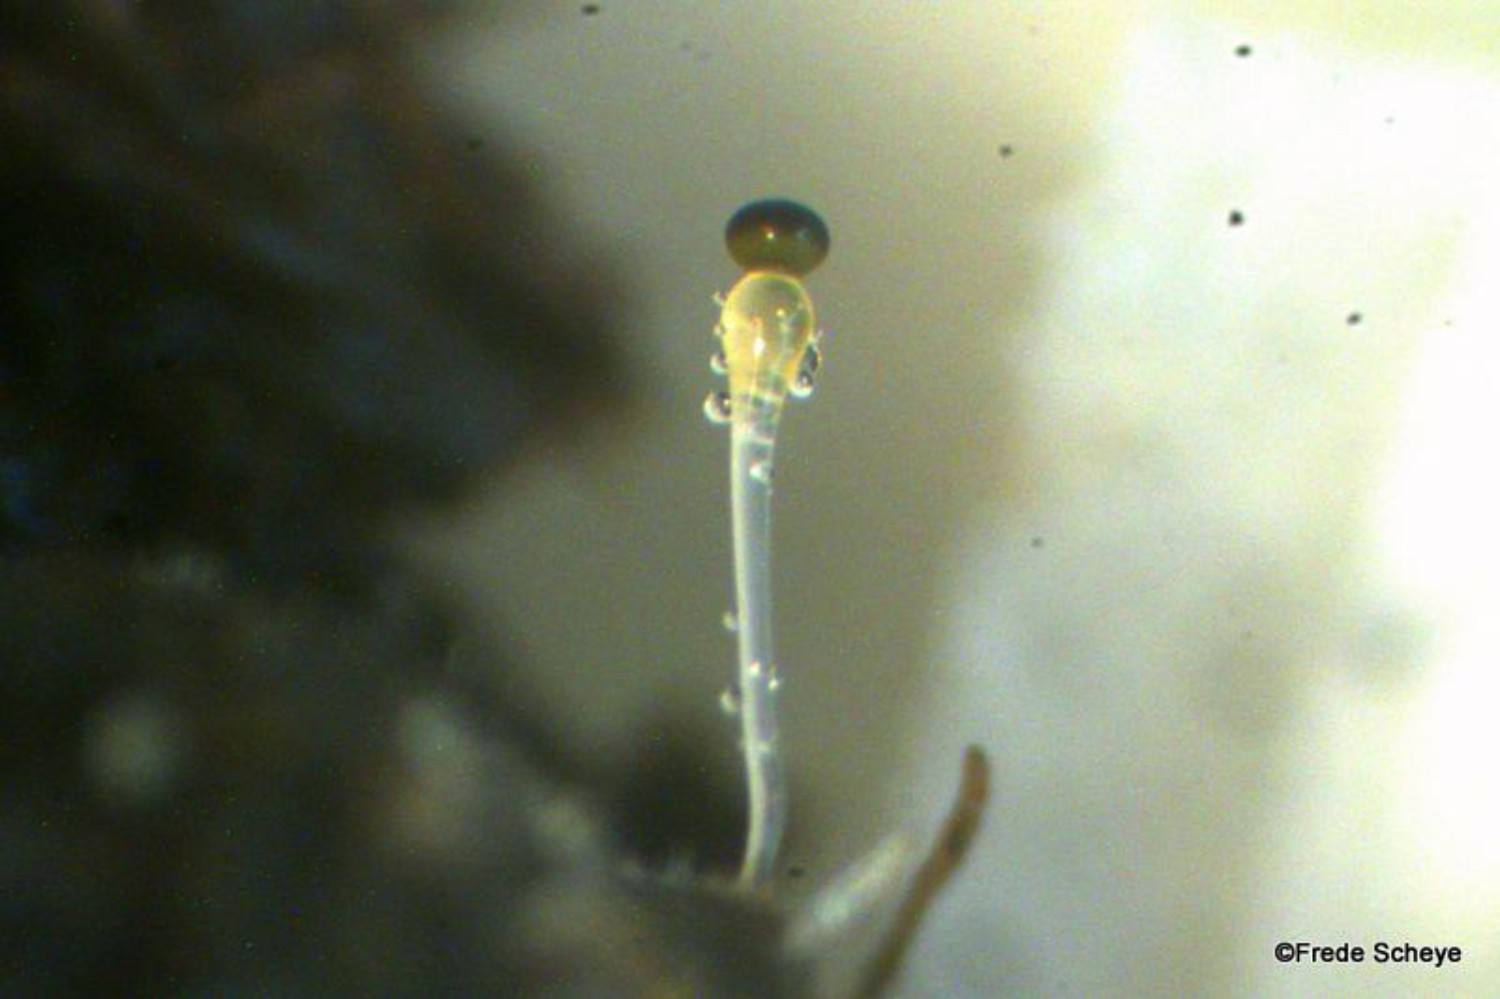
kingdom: Fungi
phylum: Mucoromycota
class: Mucoromycetes
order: Mucorales
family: Pilobolaceae
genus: Pilobolus
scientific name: Pilobolus
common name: boldkaster
